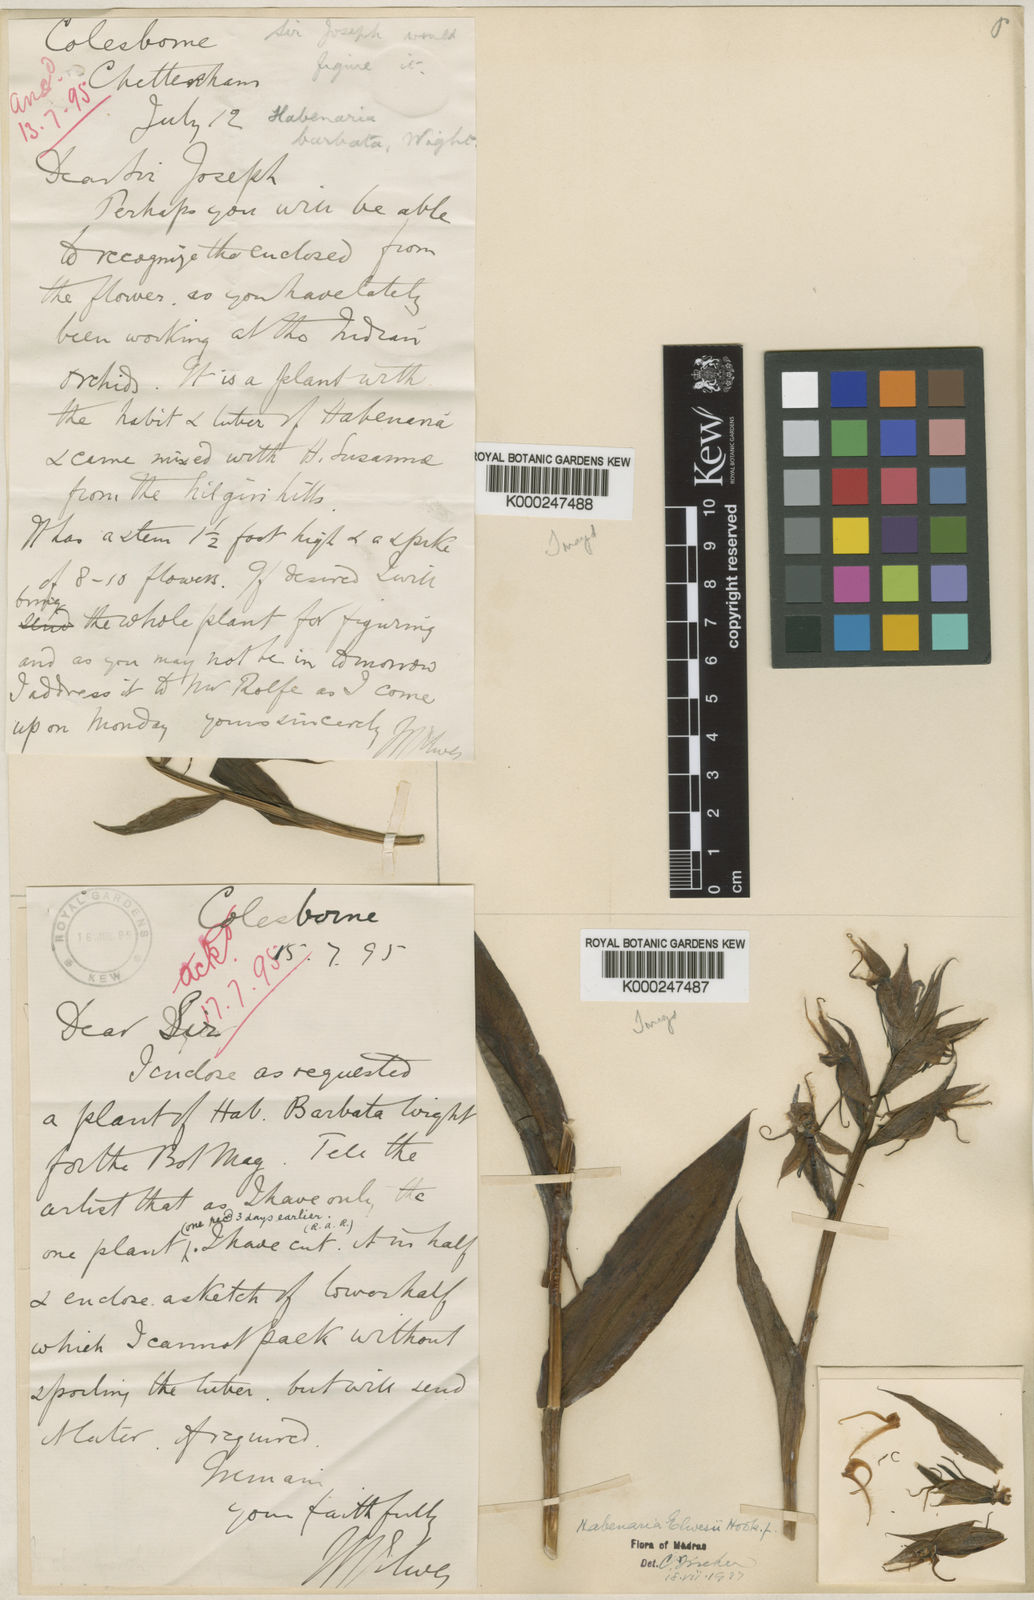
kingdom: Plantae
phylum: Tracheophyta
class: Liliopsida
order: Asparagales
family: Orchidaceae
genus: Habenaria
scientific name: Habenaria elwesii
